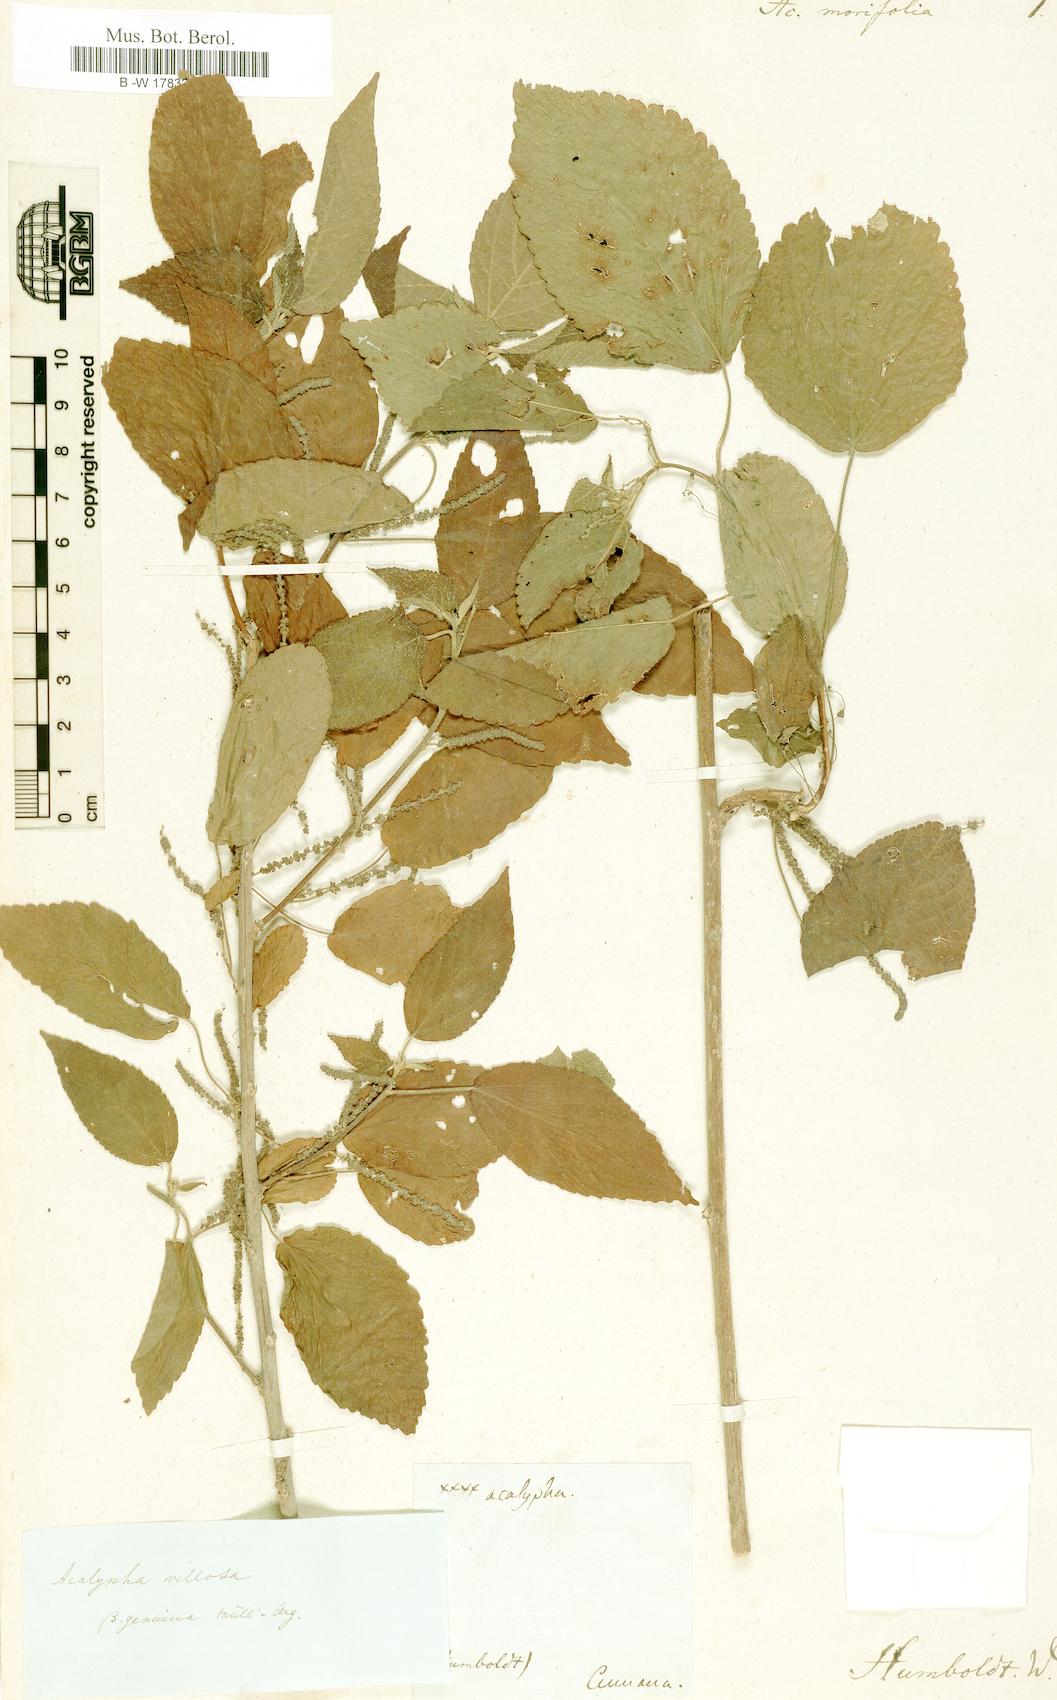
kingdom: Plantae
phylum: Tracheophyta
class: Magnoliopsida
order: Malpighiales
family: Euphorbiaceae
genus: Acalypha
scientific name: Acalypha
